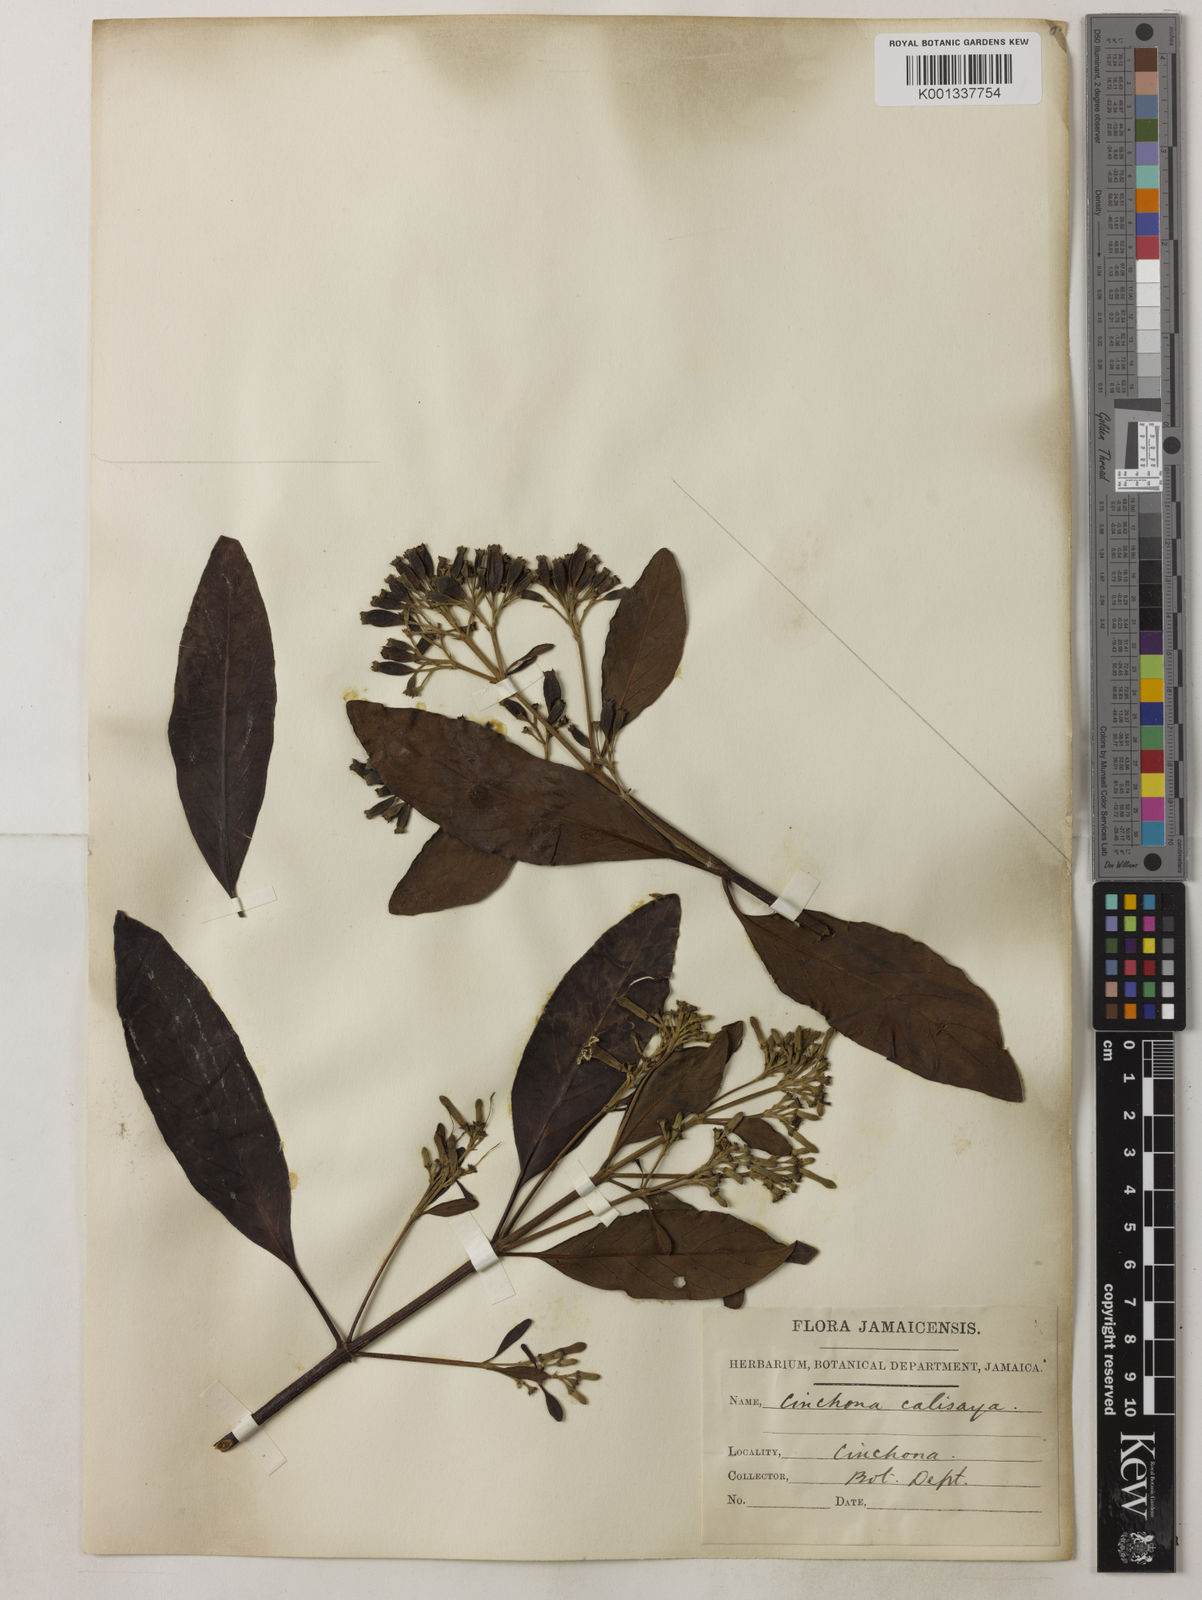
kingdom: Plantae
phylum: Tracheophyta
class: Magnoliopsida
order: Gentianales
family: Rubiaceae
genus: Cinchona
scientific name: Cinchona calisaya
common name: Ledgerbark
